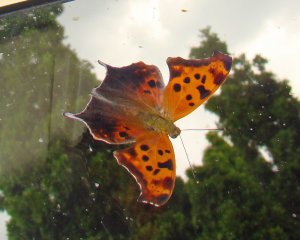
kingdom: Animalia
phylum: Arthropoda
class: Insecta
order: Lepidoptera
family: Nymphalidae
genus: Polygonia
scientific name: Polygonia interrogationis
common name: Question Mark
